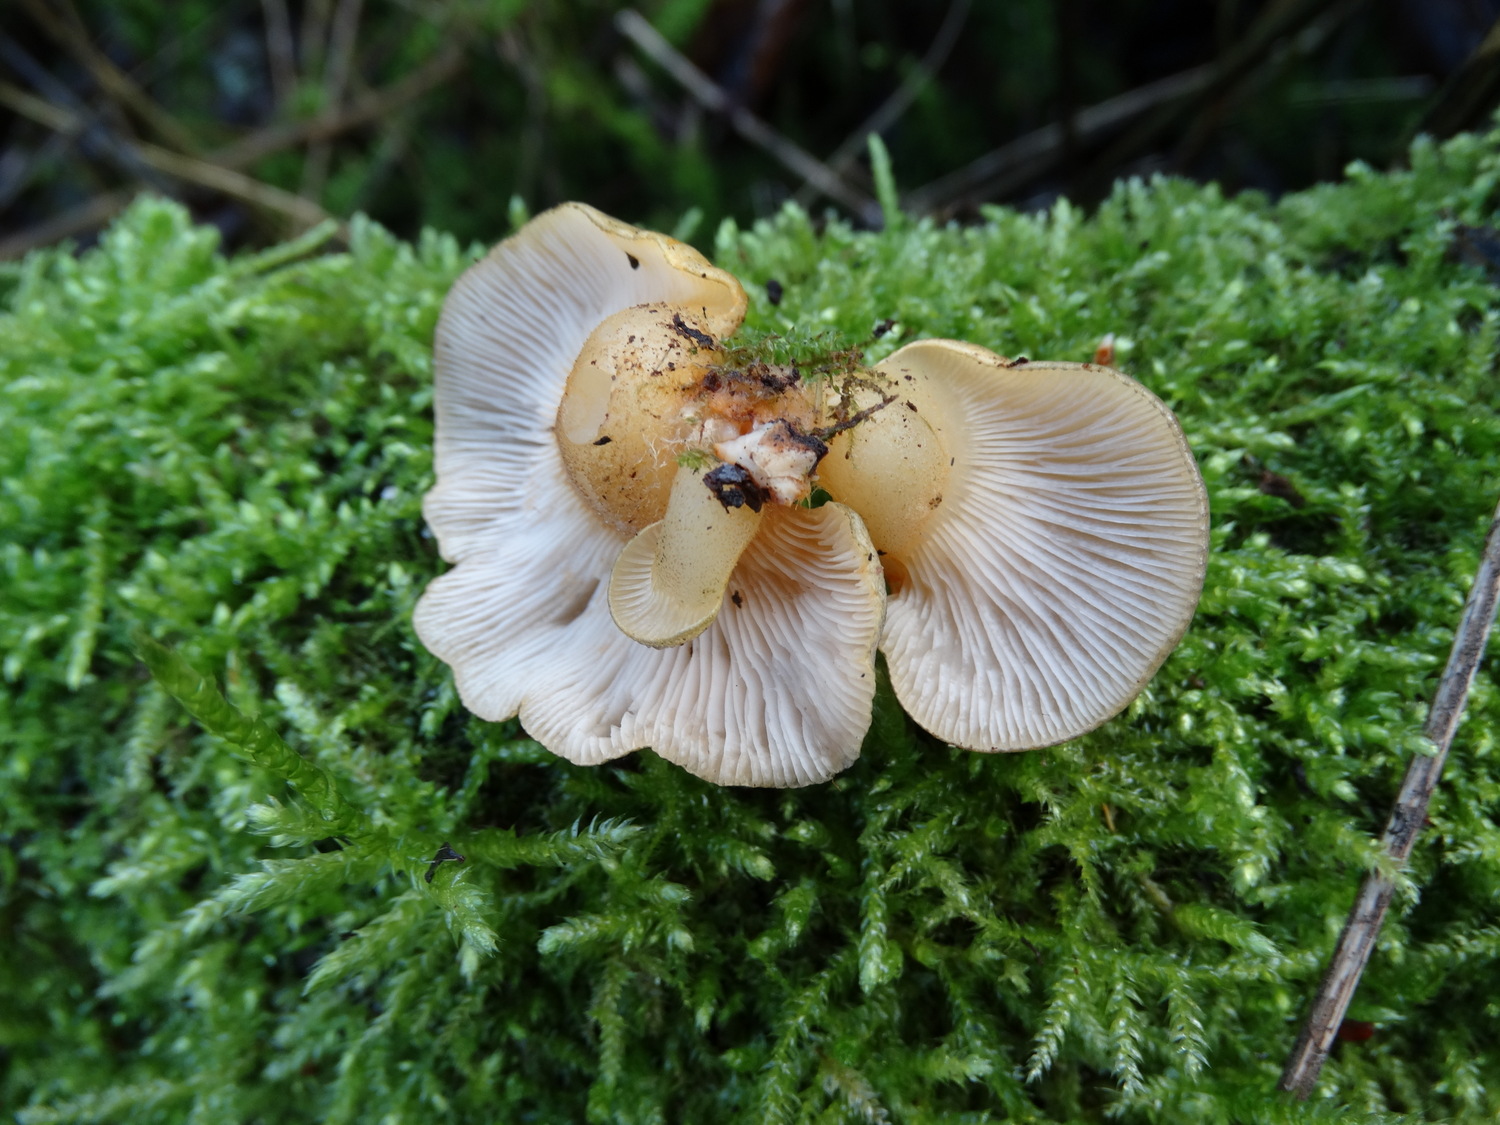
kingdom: Fungi
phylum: Basidiomycota
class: Agaricomycetes
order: Agaricales
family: Sarcomyxaceae
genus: Sarcomyxa
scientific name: Sarcomyxa serotina
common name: gummihat
